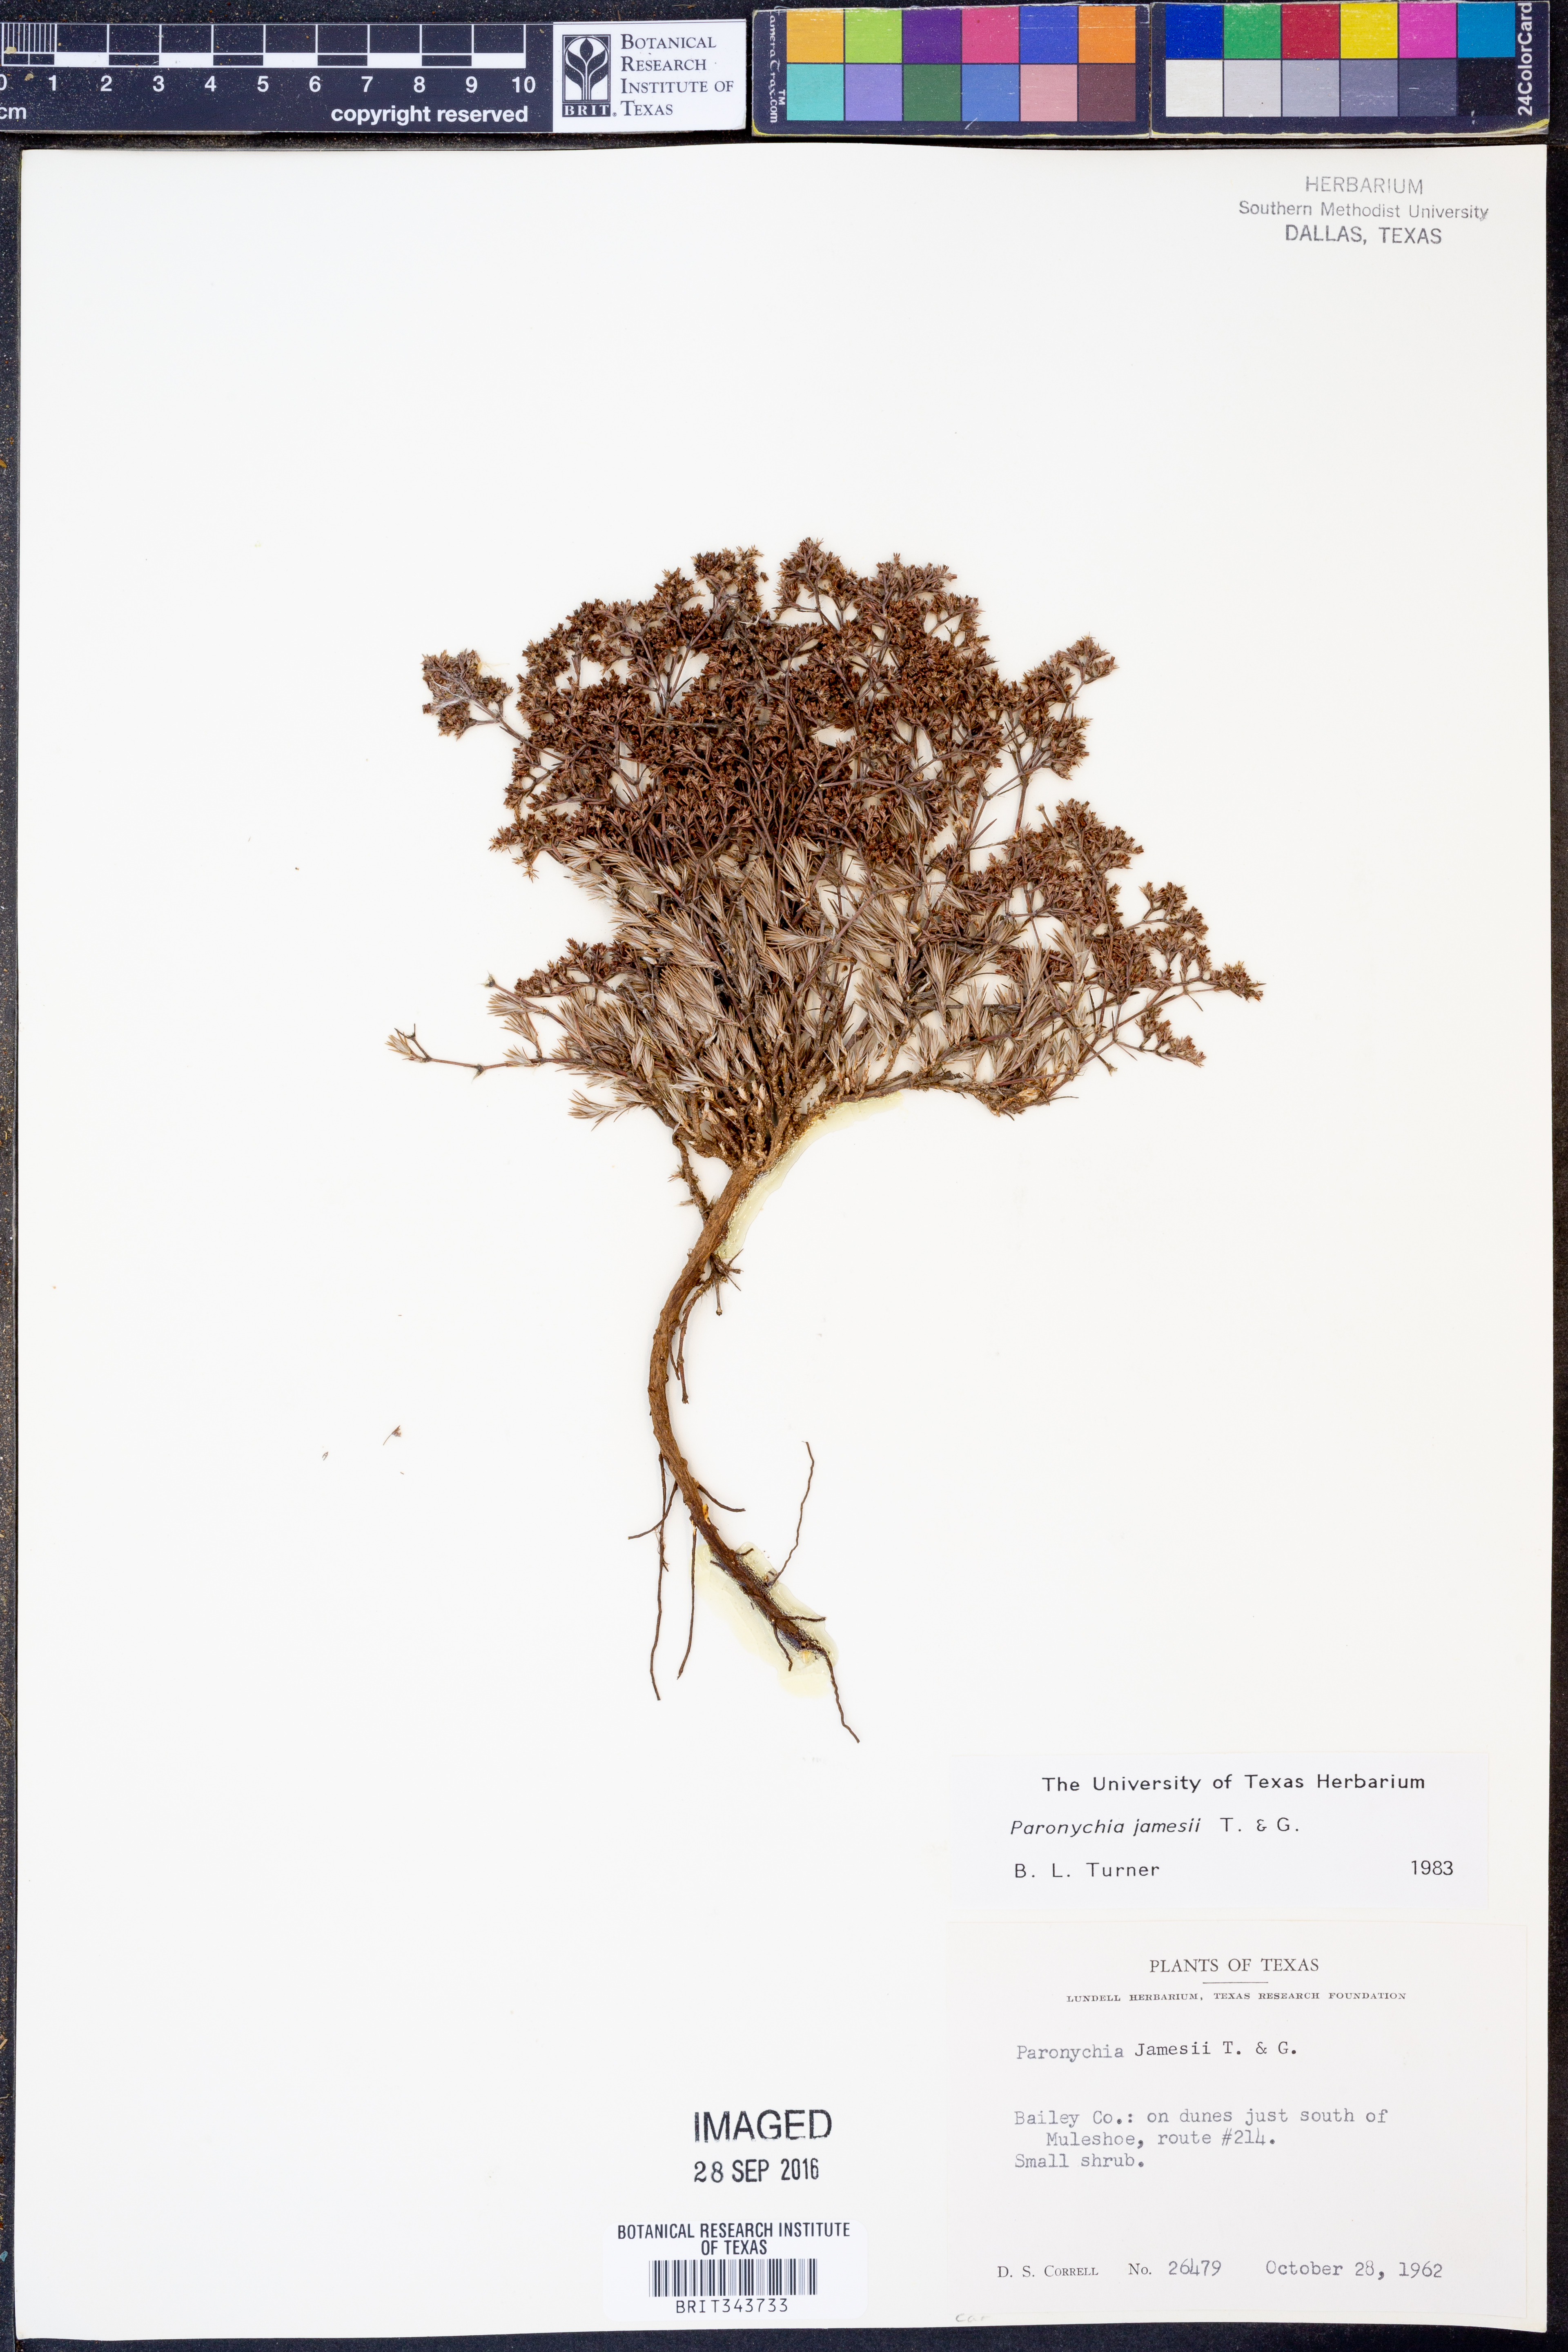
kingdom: Plantae
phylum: Tracheophyta
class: Magnoliopsida
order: Caryophyllales
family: Caryophyllaceae
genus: Paronychia
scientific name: Paronychia jamesii
